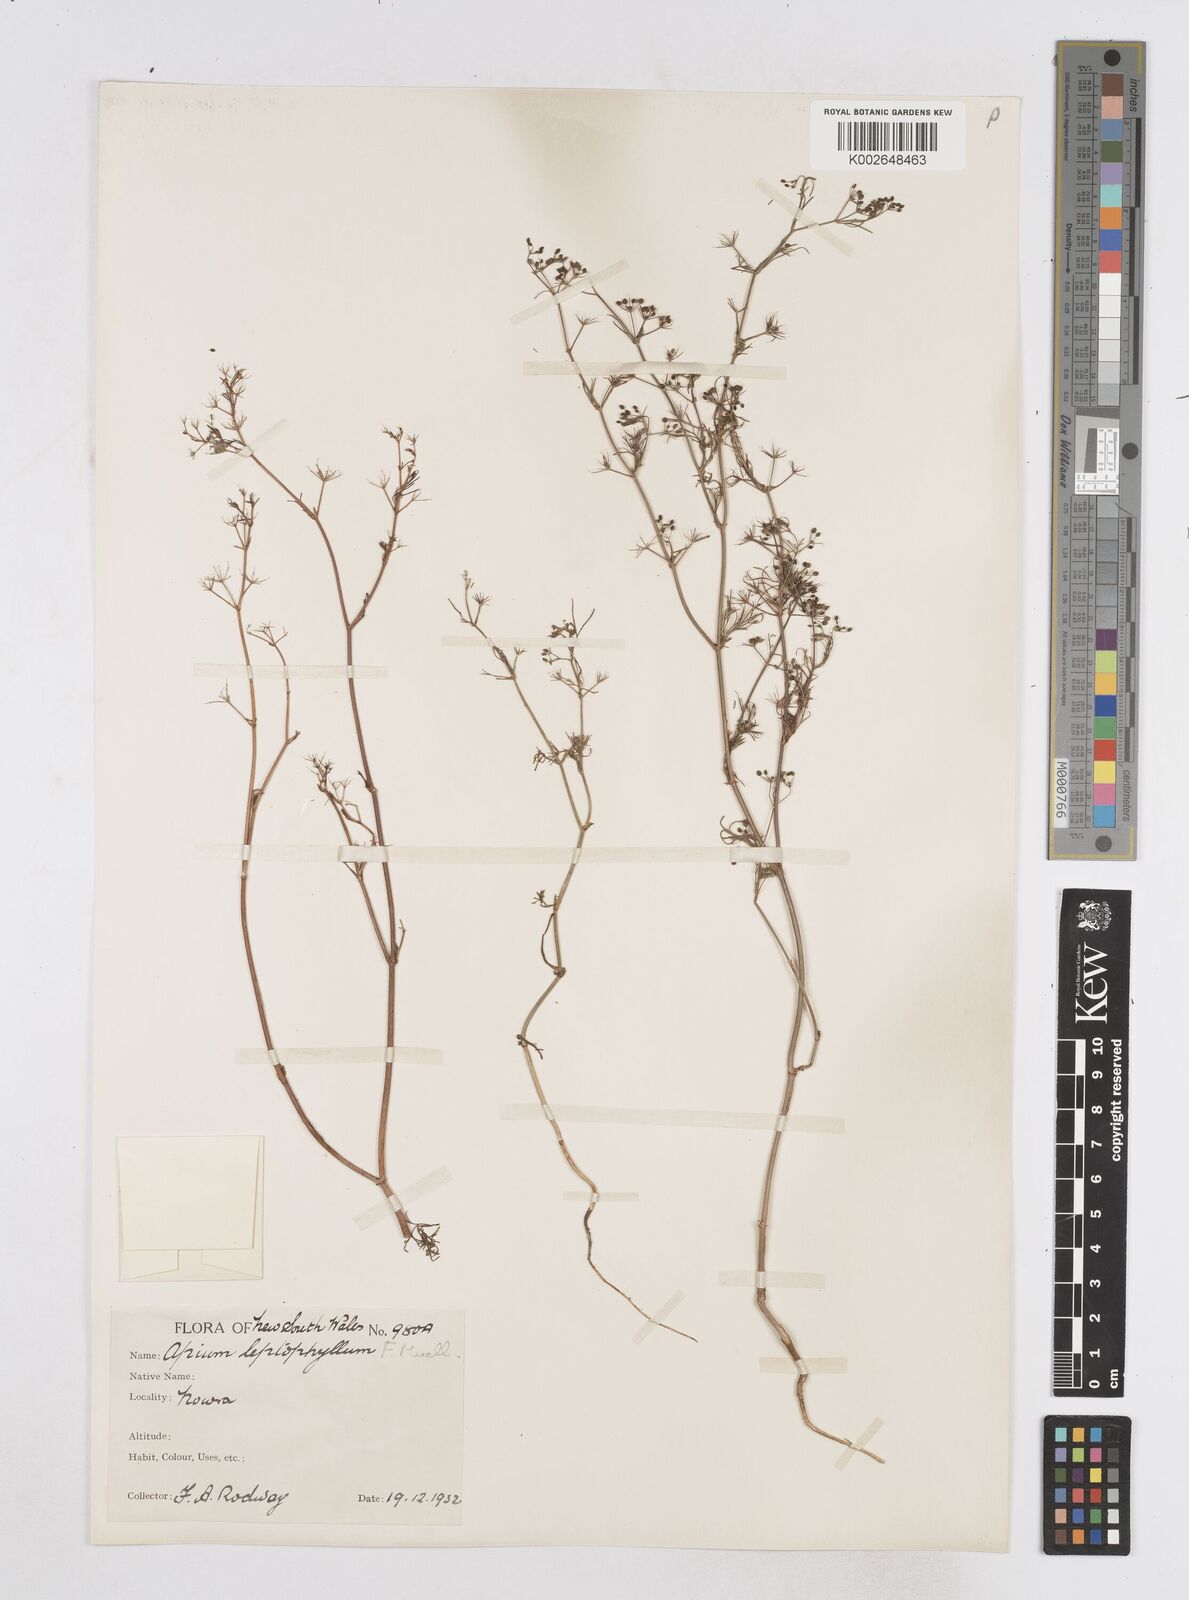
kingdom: Plantae
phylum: Tracheophyta
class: Magnoliopsida
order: Apiales
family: Apiaceae
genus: Cyclospermum
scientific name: Cyclospermum leptophyllum
